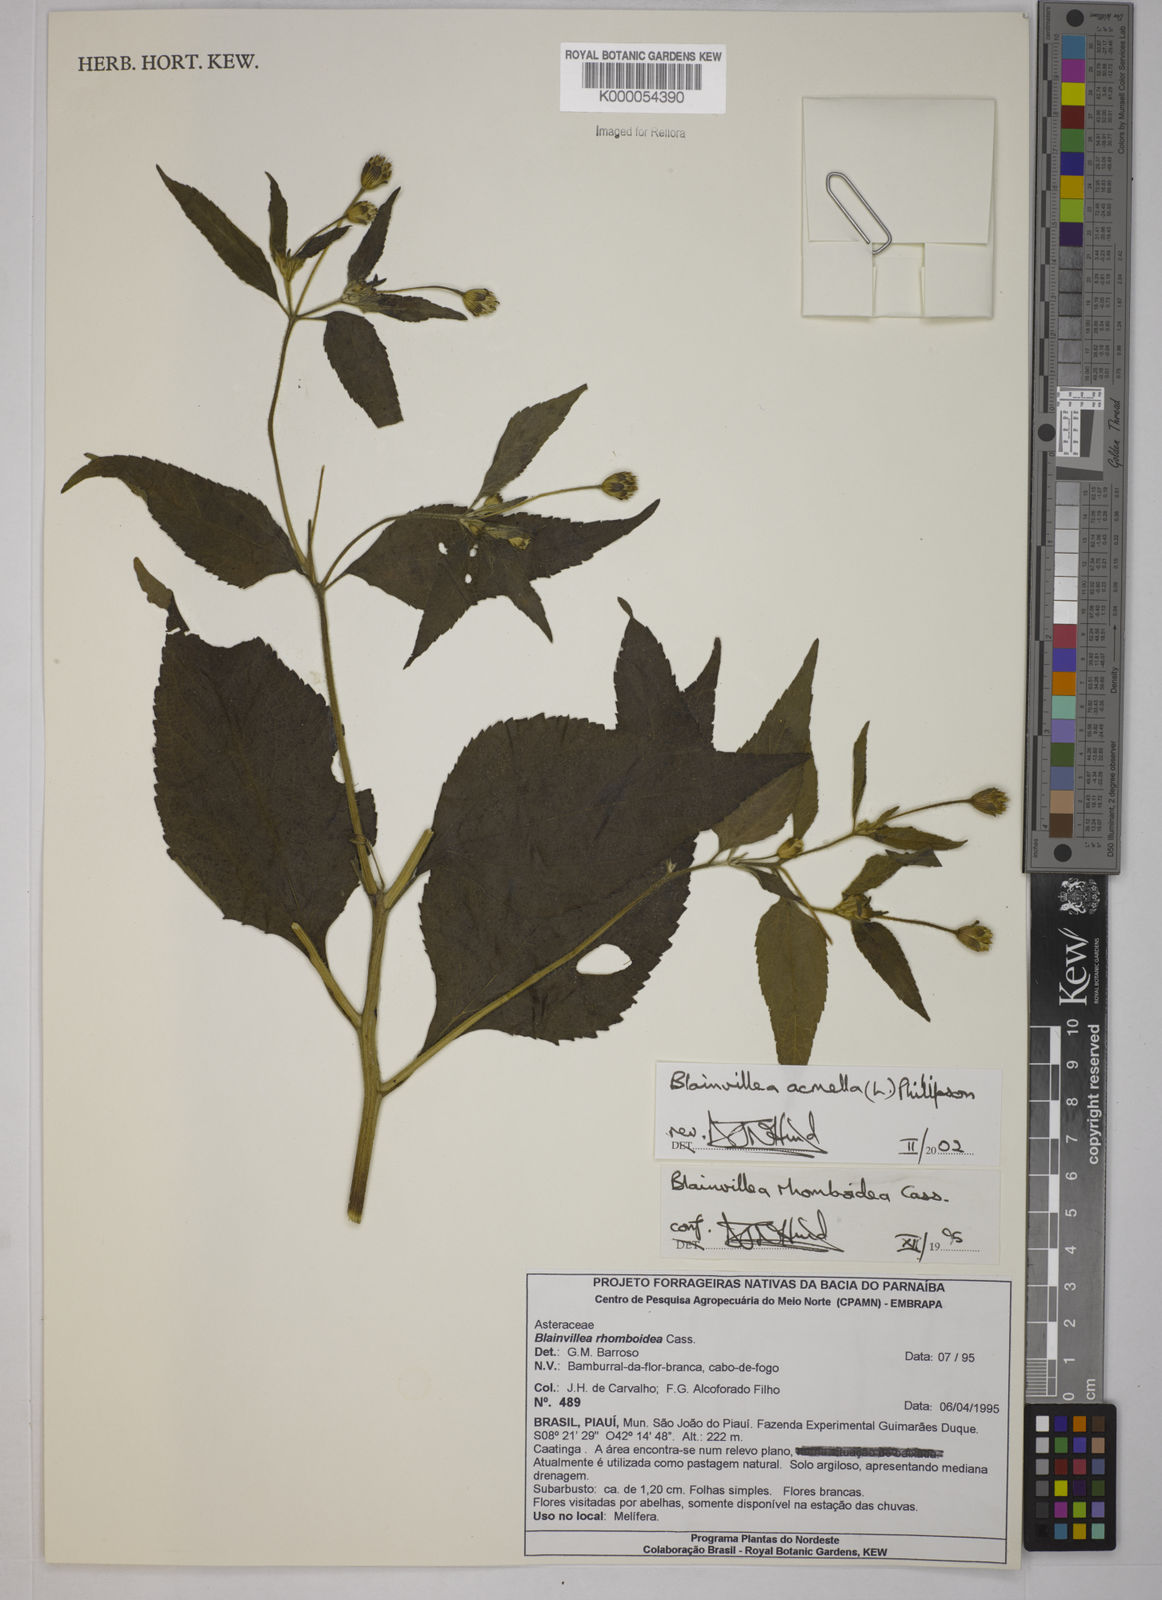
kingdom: Plantae
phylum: Tracheophyta
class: Magnoliopsida
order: Asterales
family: Asteraceae
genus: Blainvillea
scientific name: Blainvillea acmella
